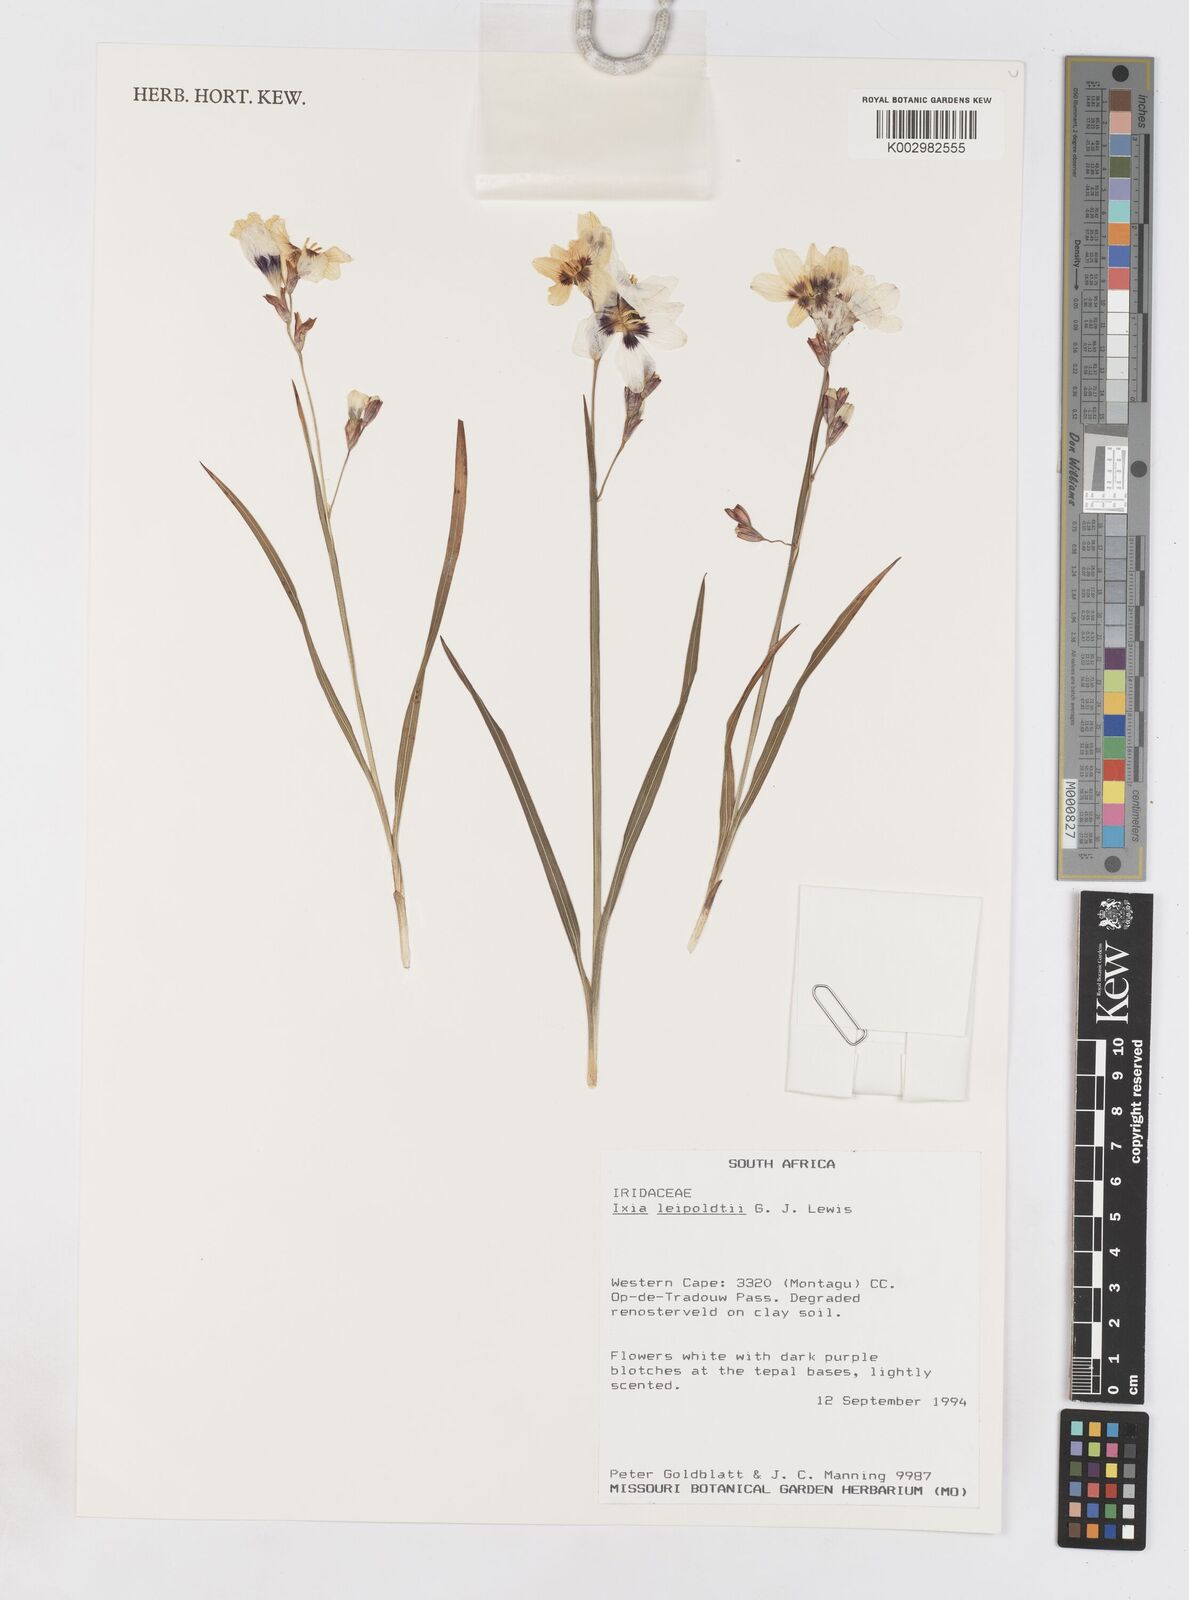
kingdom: Plantae
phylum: Tracheophyta
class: Liliopsida
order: Asparagales
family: Iridaceae
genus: Ixia
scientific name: Ixia leipoldtii
